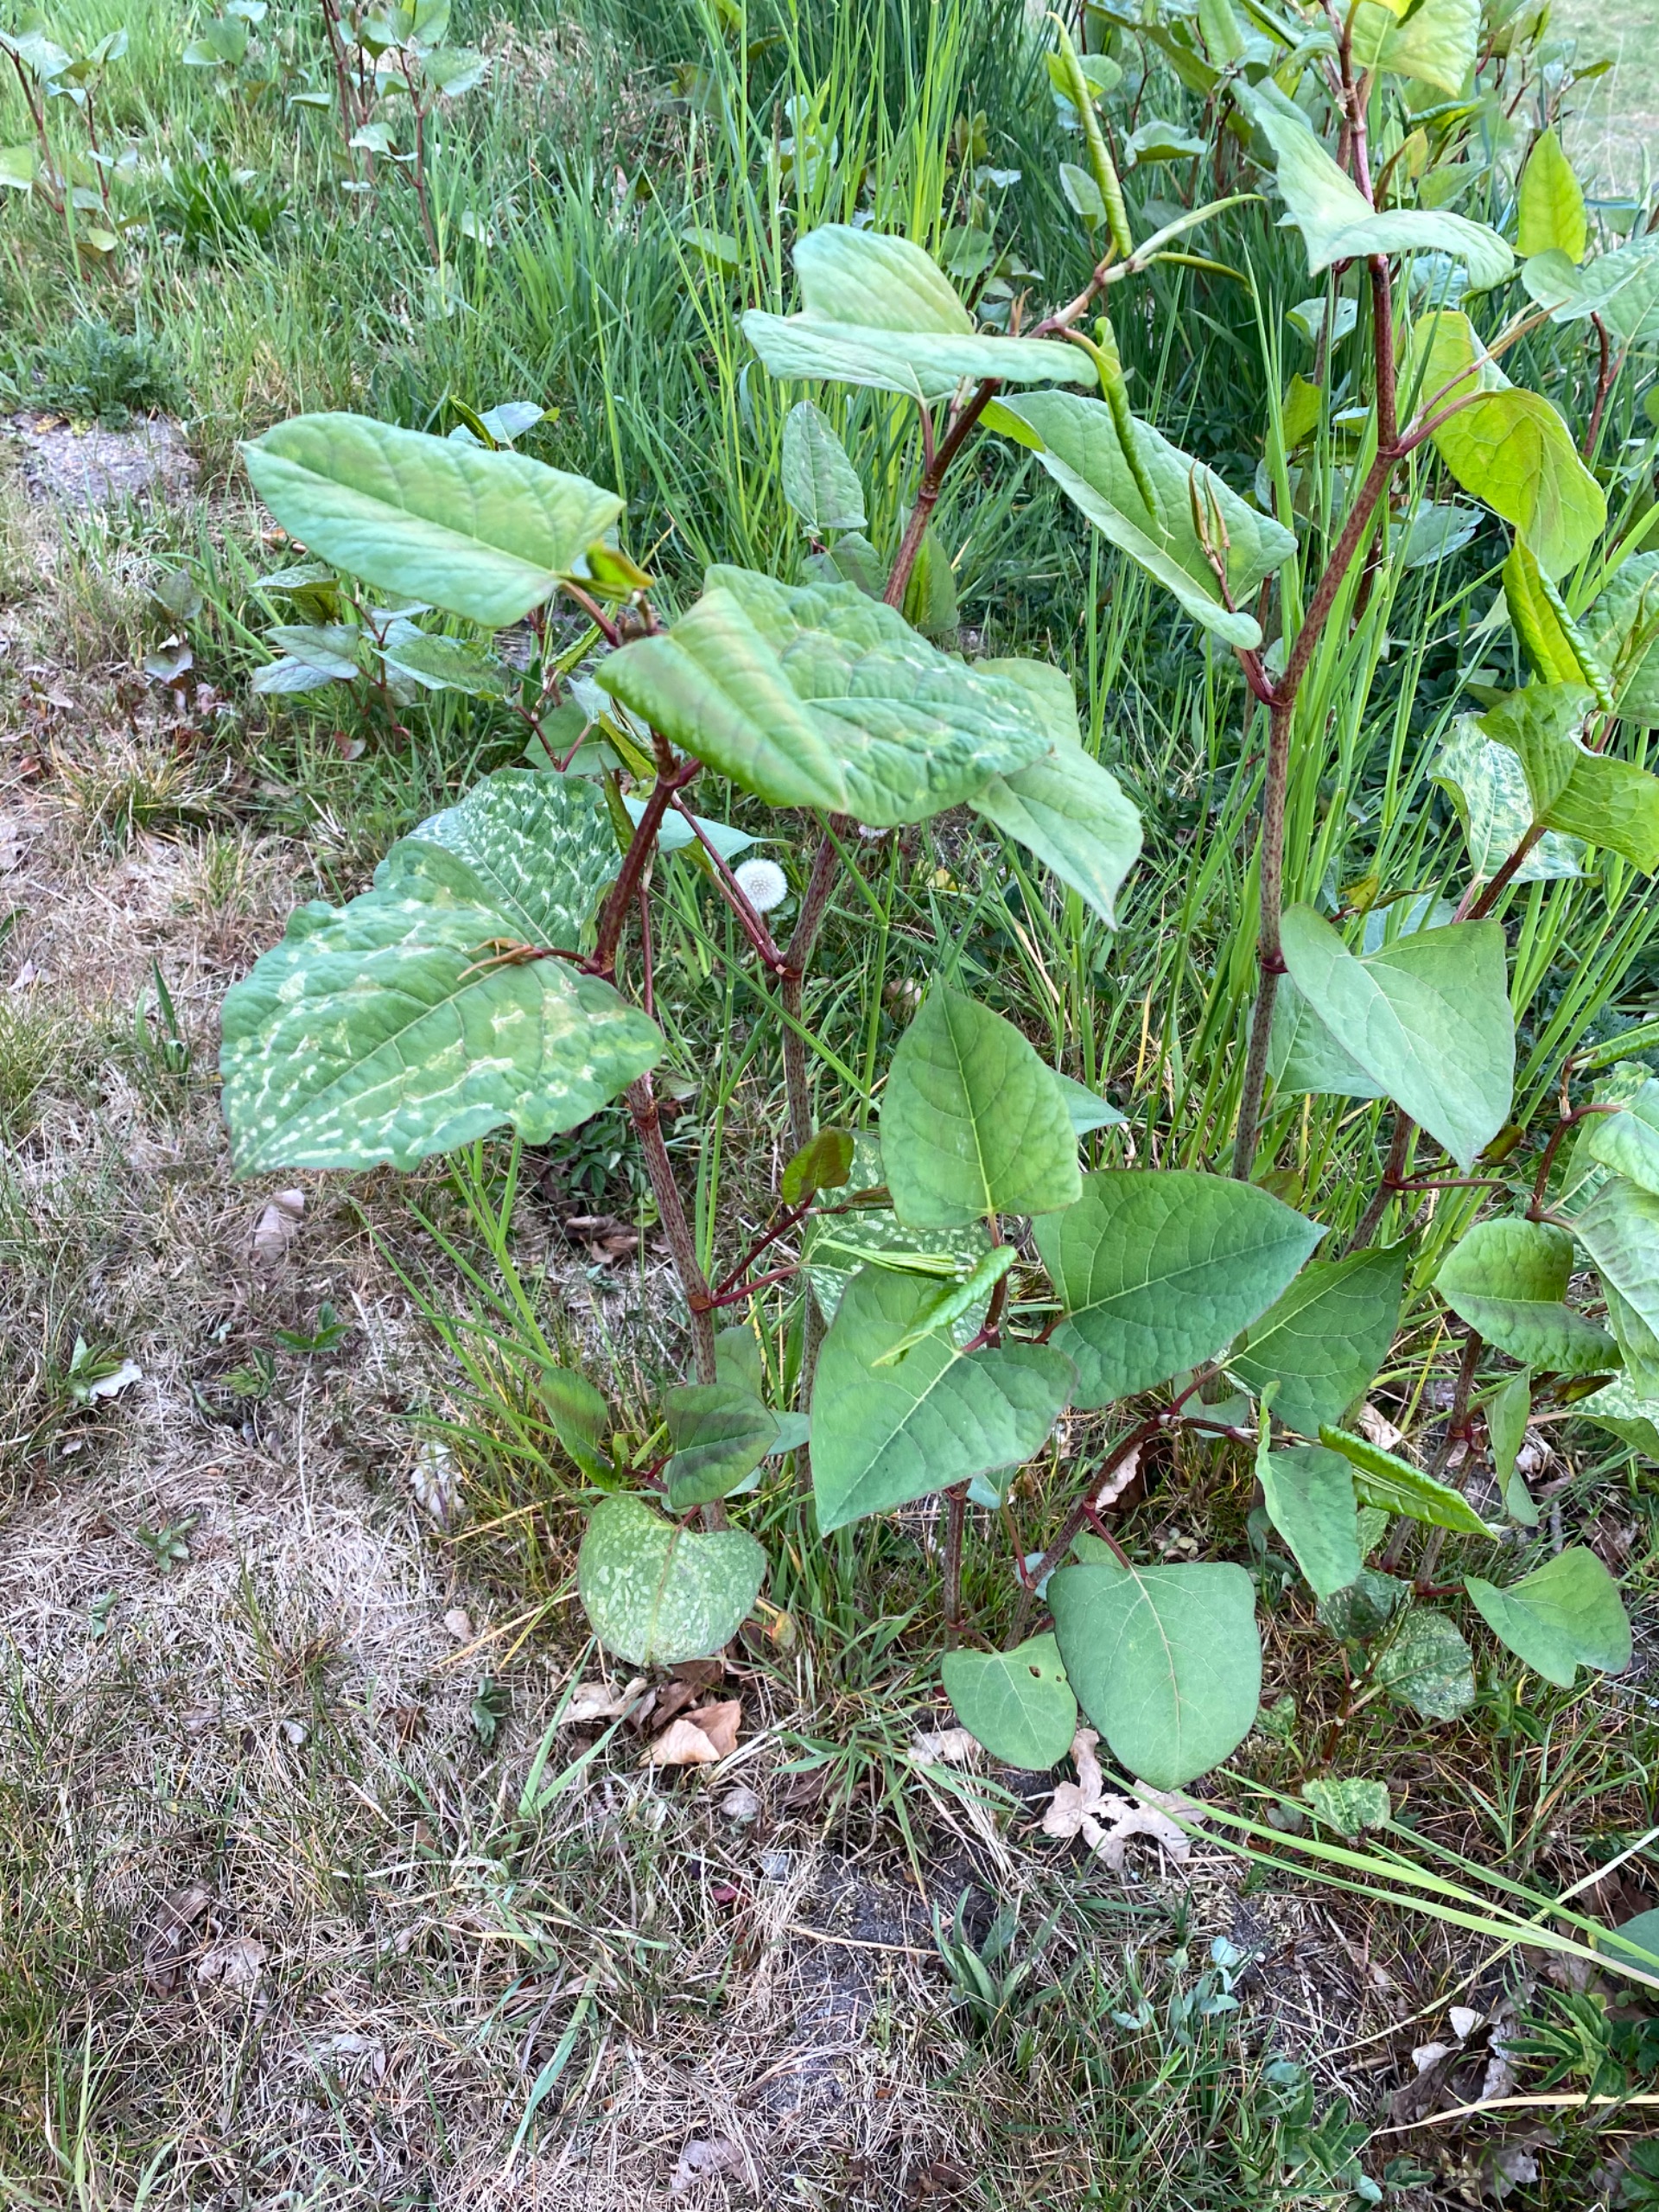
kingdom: Plantae
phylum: Tracheophyta
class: Magnoliopsida
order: Caryophyllales
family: Polygonaceae
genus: Reynoutria
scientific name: Reynoutria
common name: Pileurt (Reynoutria-slægten)
